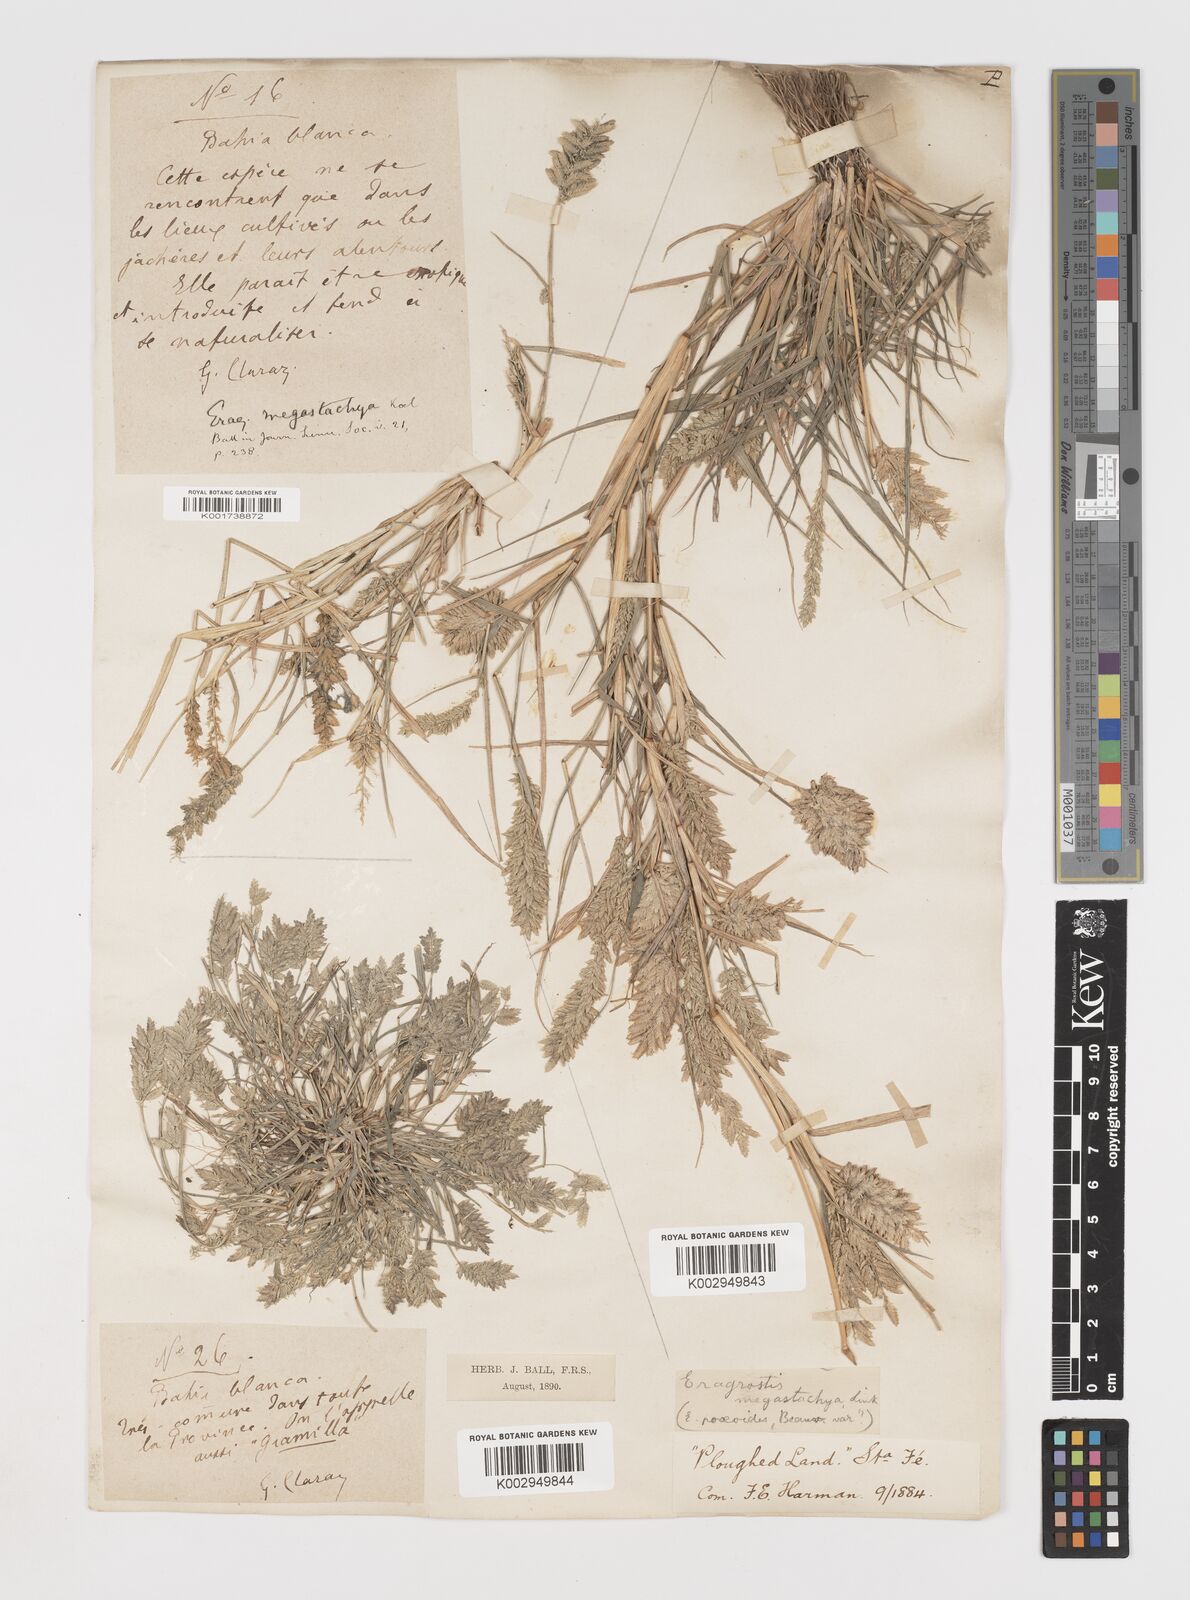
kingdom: Plantae
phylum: Tracheophyta
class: Liliopsida
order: Poales
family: Poaceae
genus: Eragrostis
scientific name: Eragrostis cilianensis
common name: Stinkgrass
